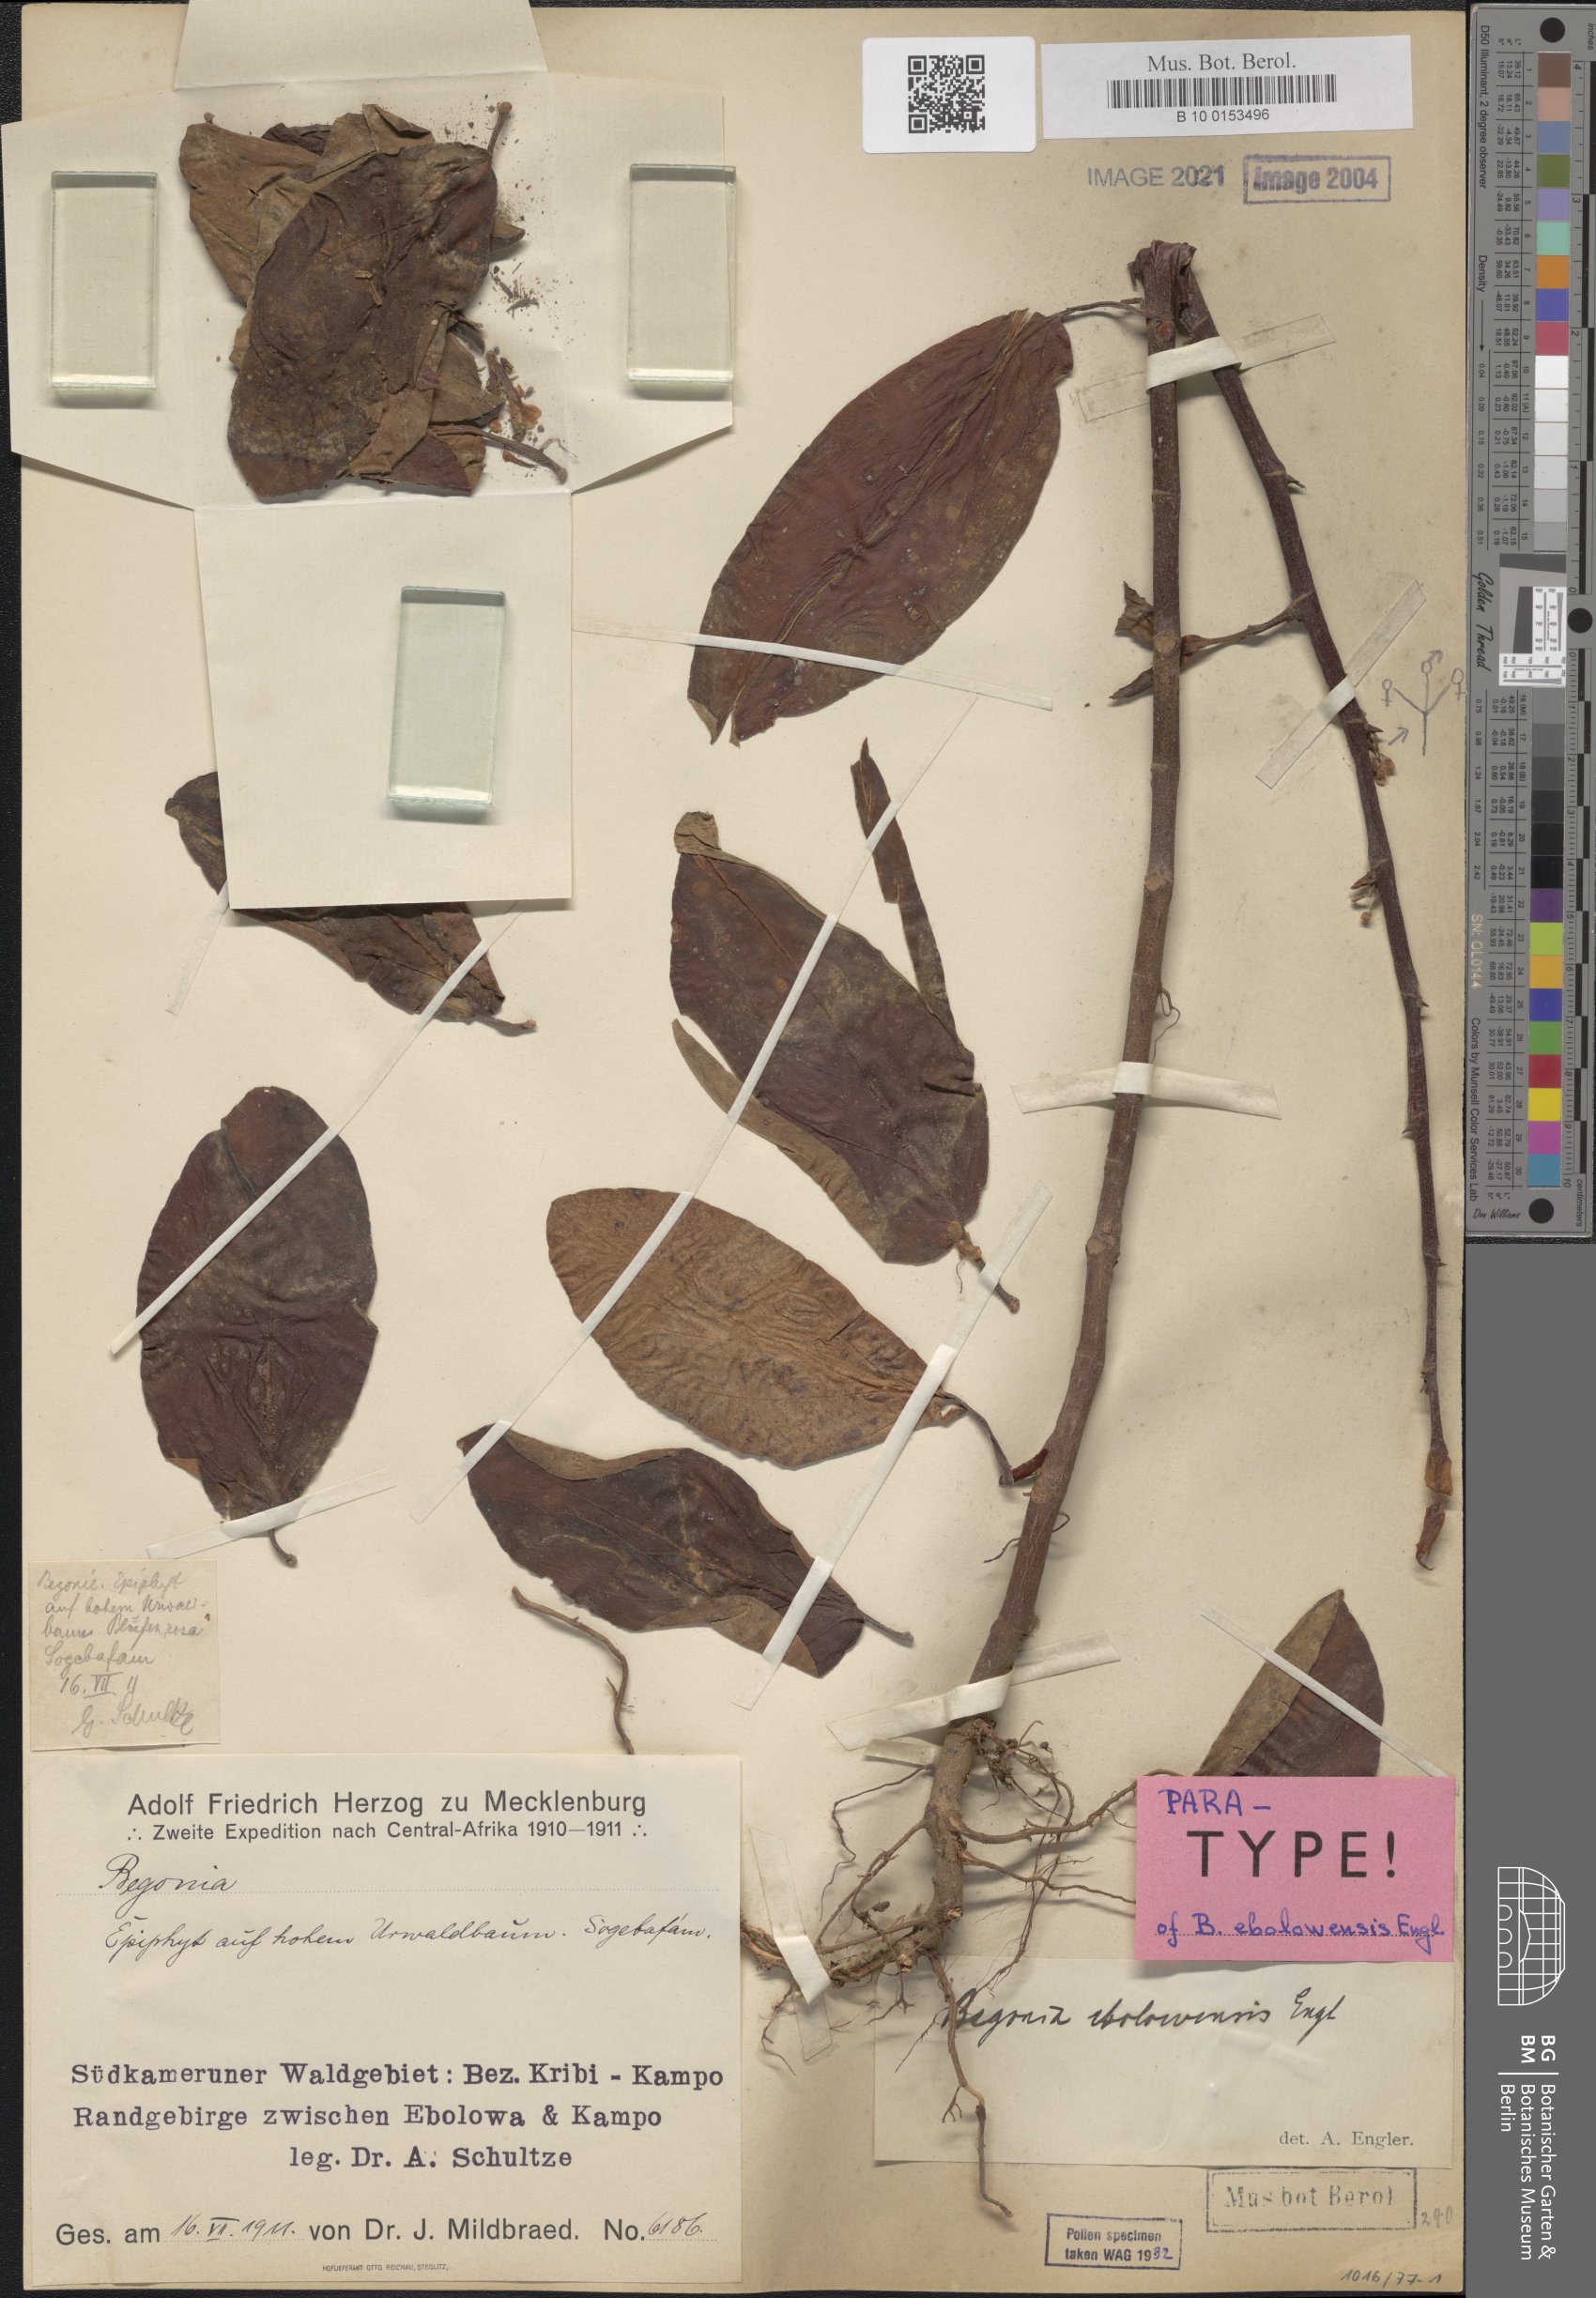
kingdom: Plantae
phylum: Tracheophyta
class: Magnoliopsida
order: Cucurbitales
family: Begoniaceae
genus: Begonia
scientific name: Begonia ebolowensis
